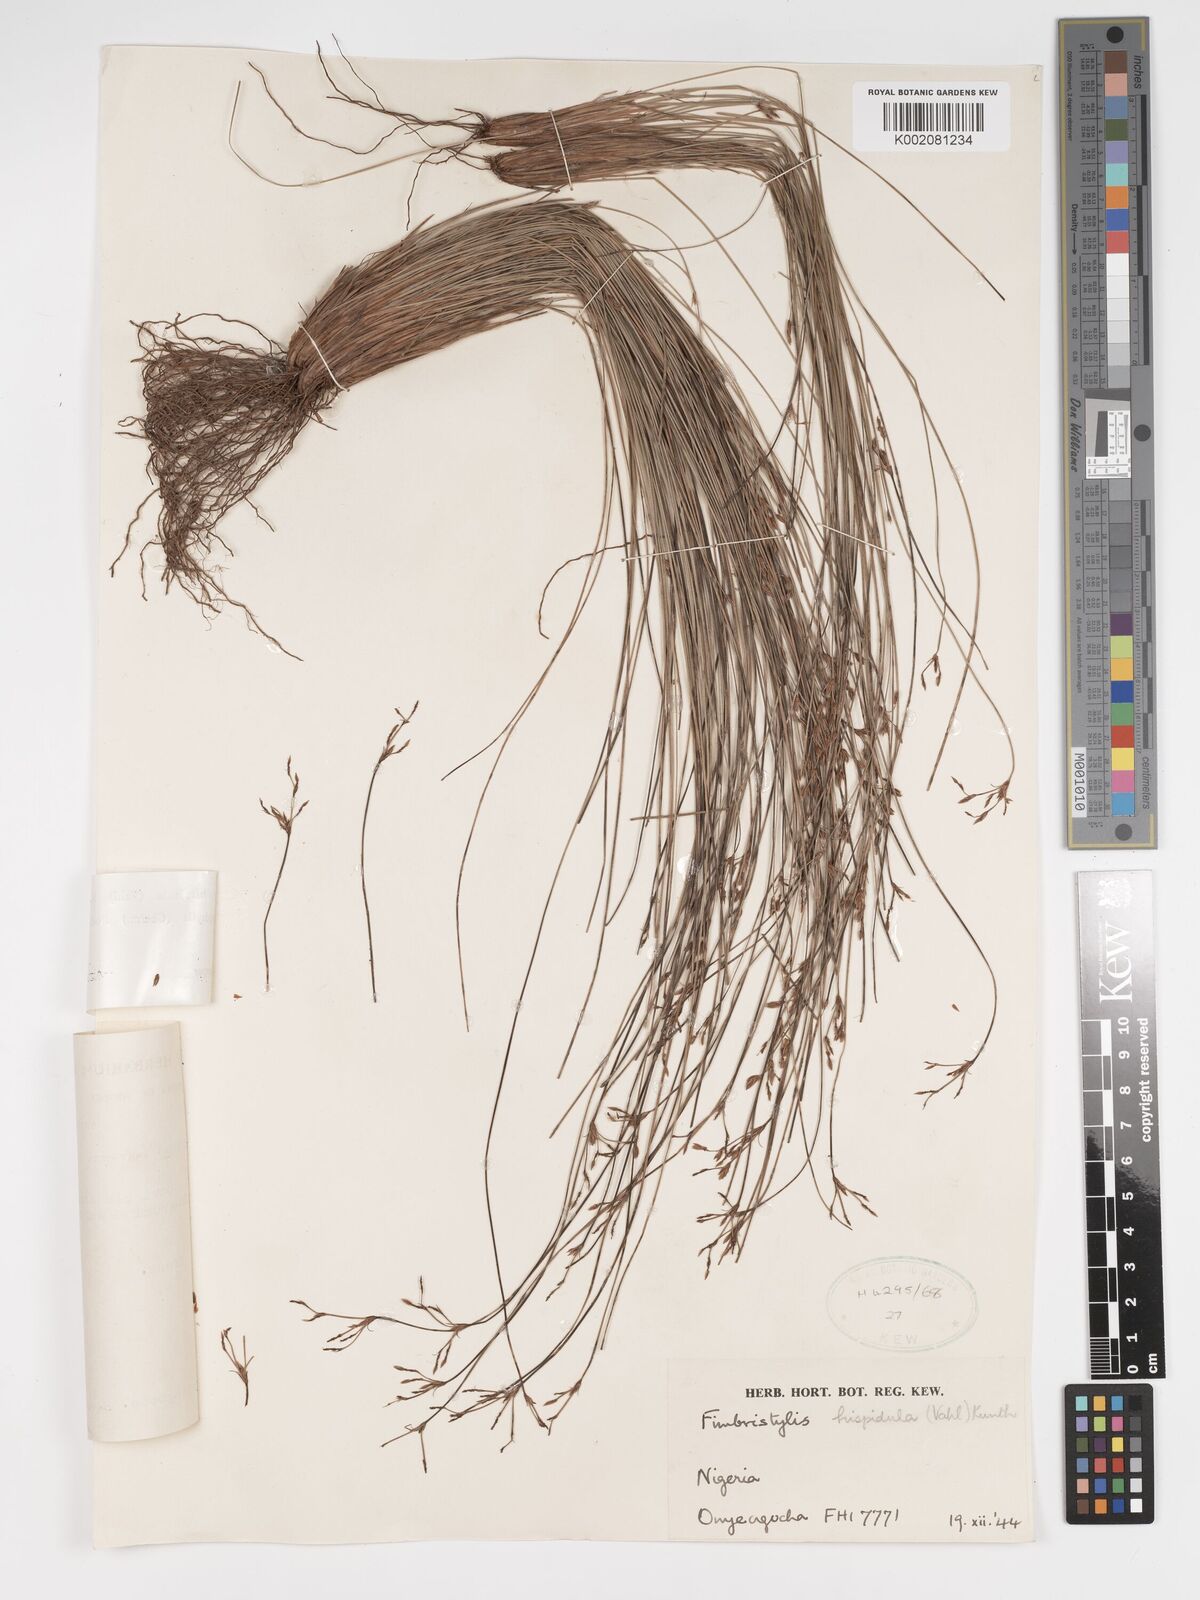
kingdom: Plantae
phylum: Tracheophyta
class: Liliopsida
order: Poales
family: Cyperaceae
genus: Bulbostylis
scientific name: Bulbostylis hispidula
